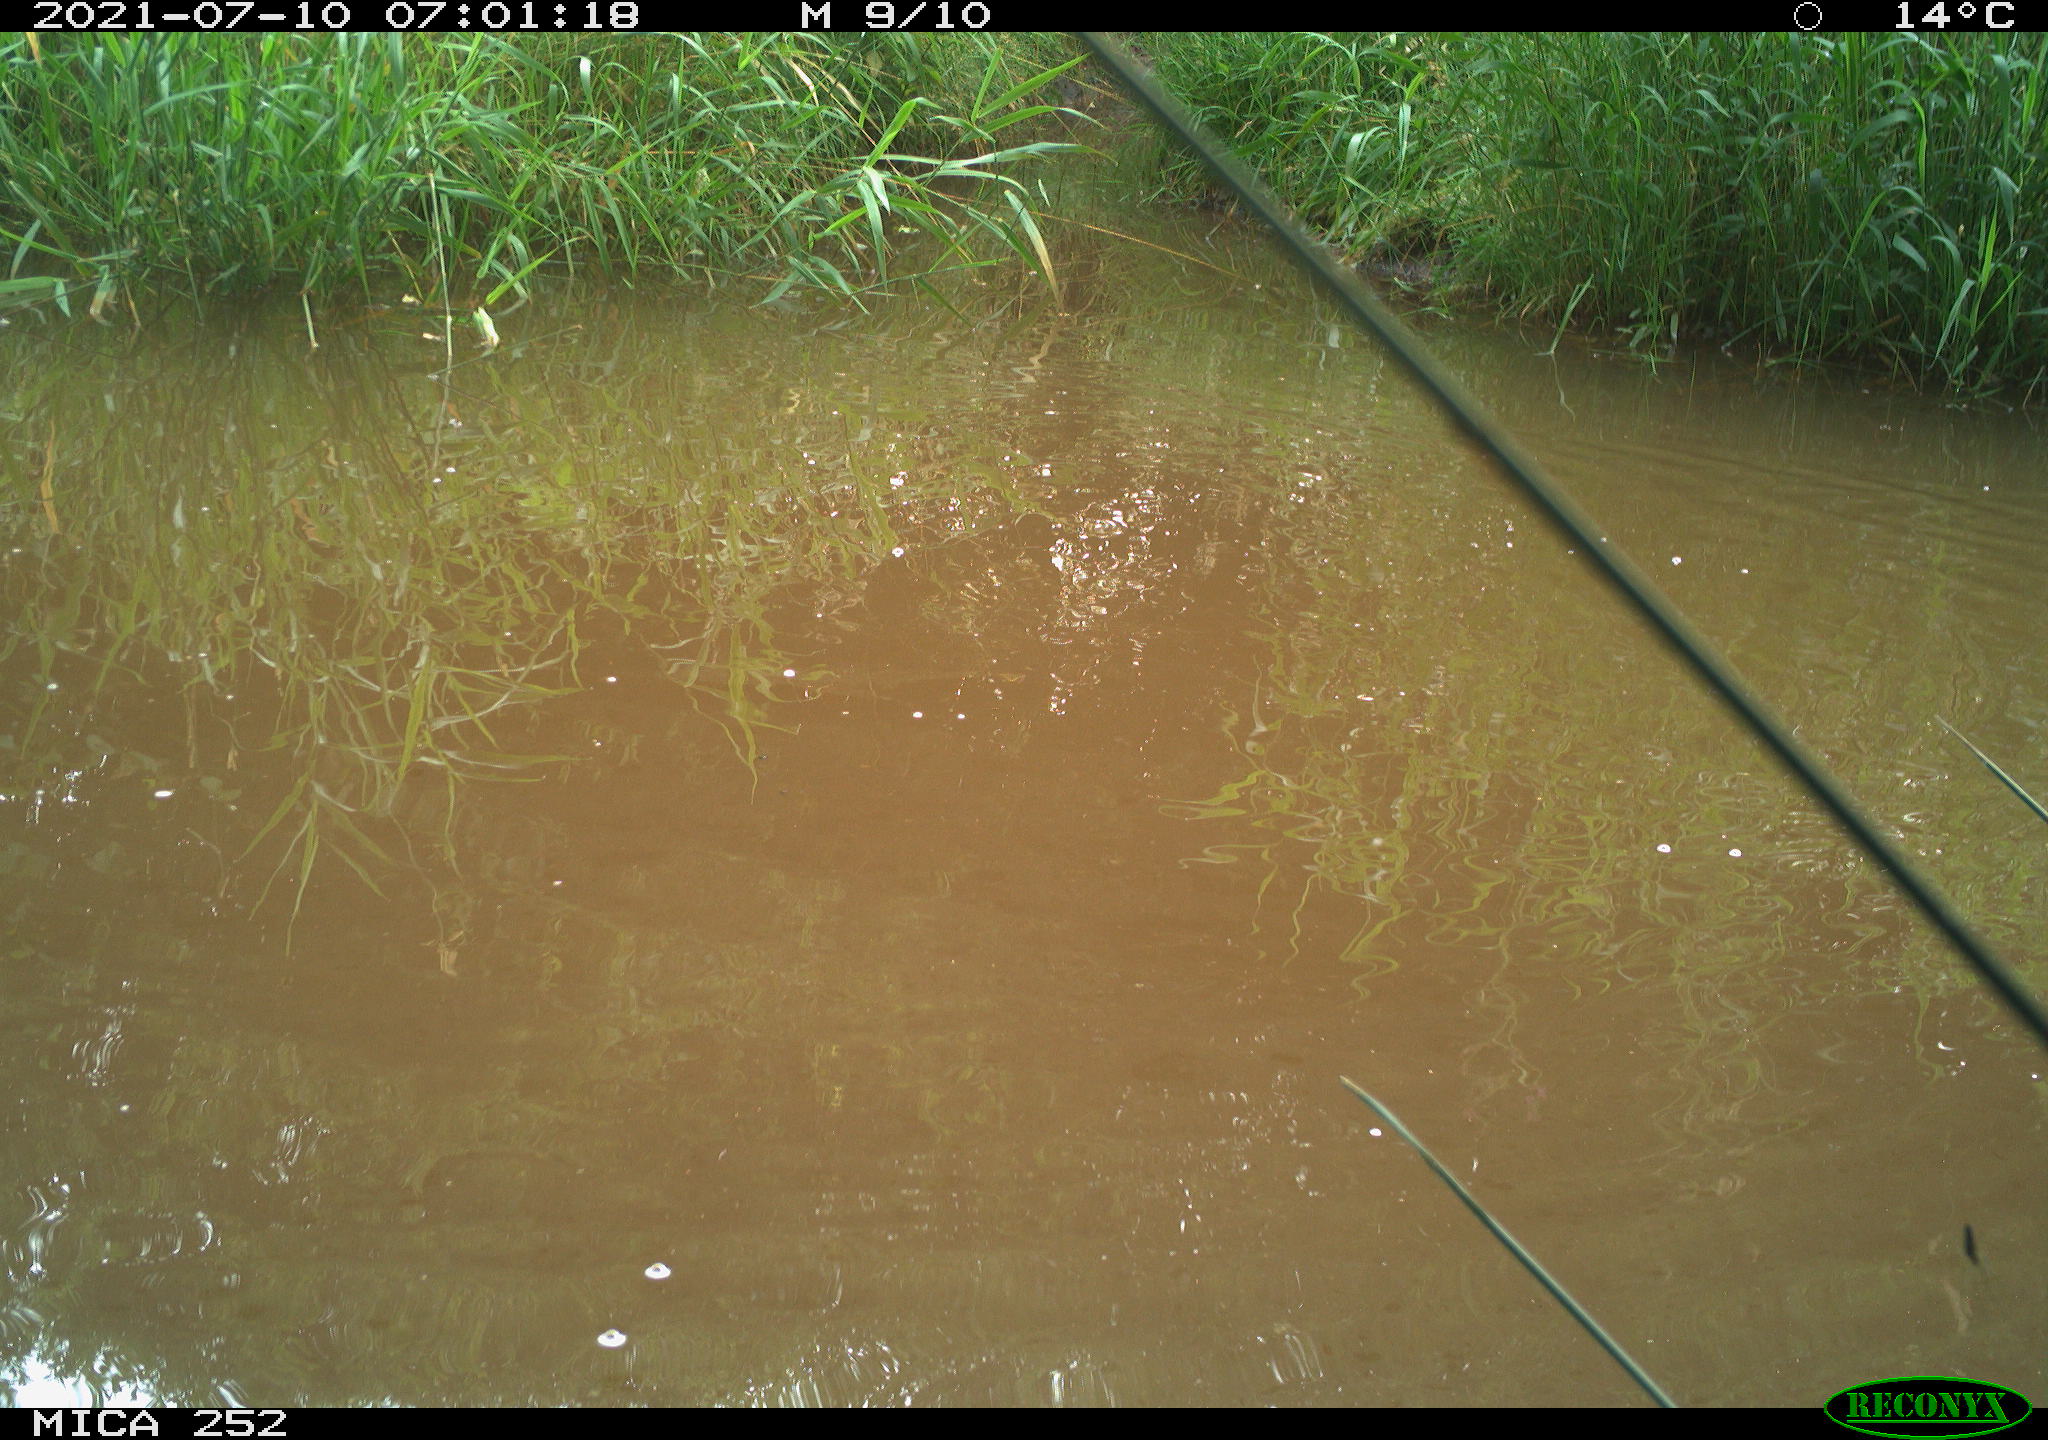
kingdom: Animalia
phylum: Chordata
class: Aves
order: Anseriformes
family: Anatidae
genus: Anas
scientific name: Anas platyrhynchos
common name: Mallard
